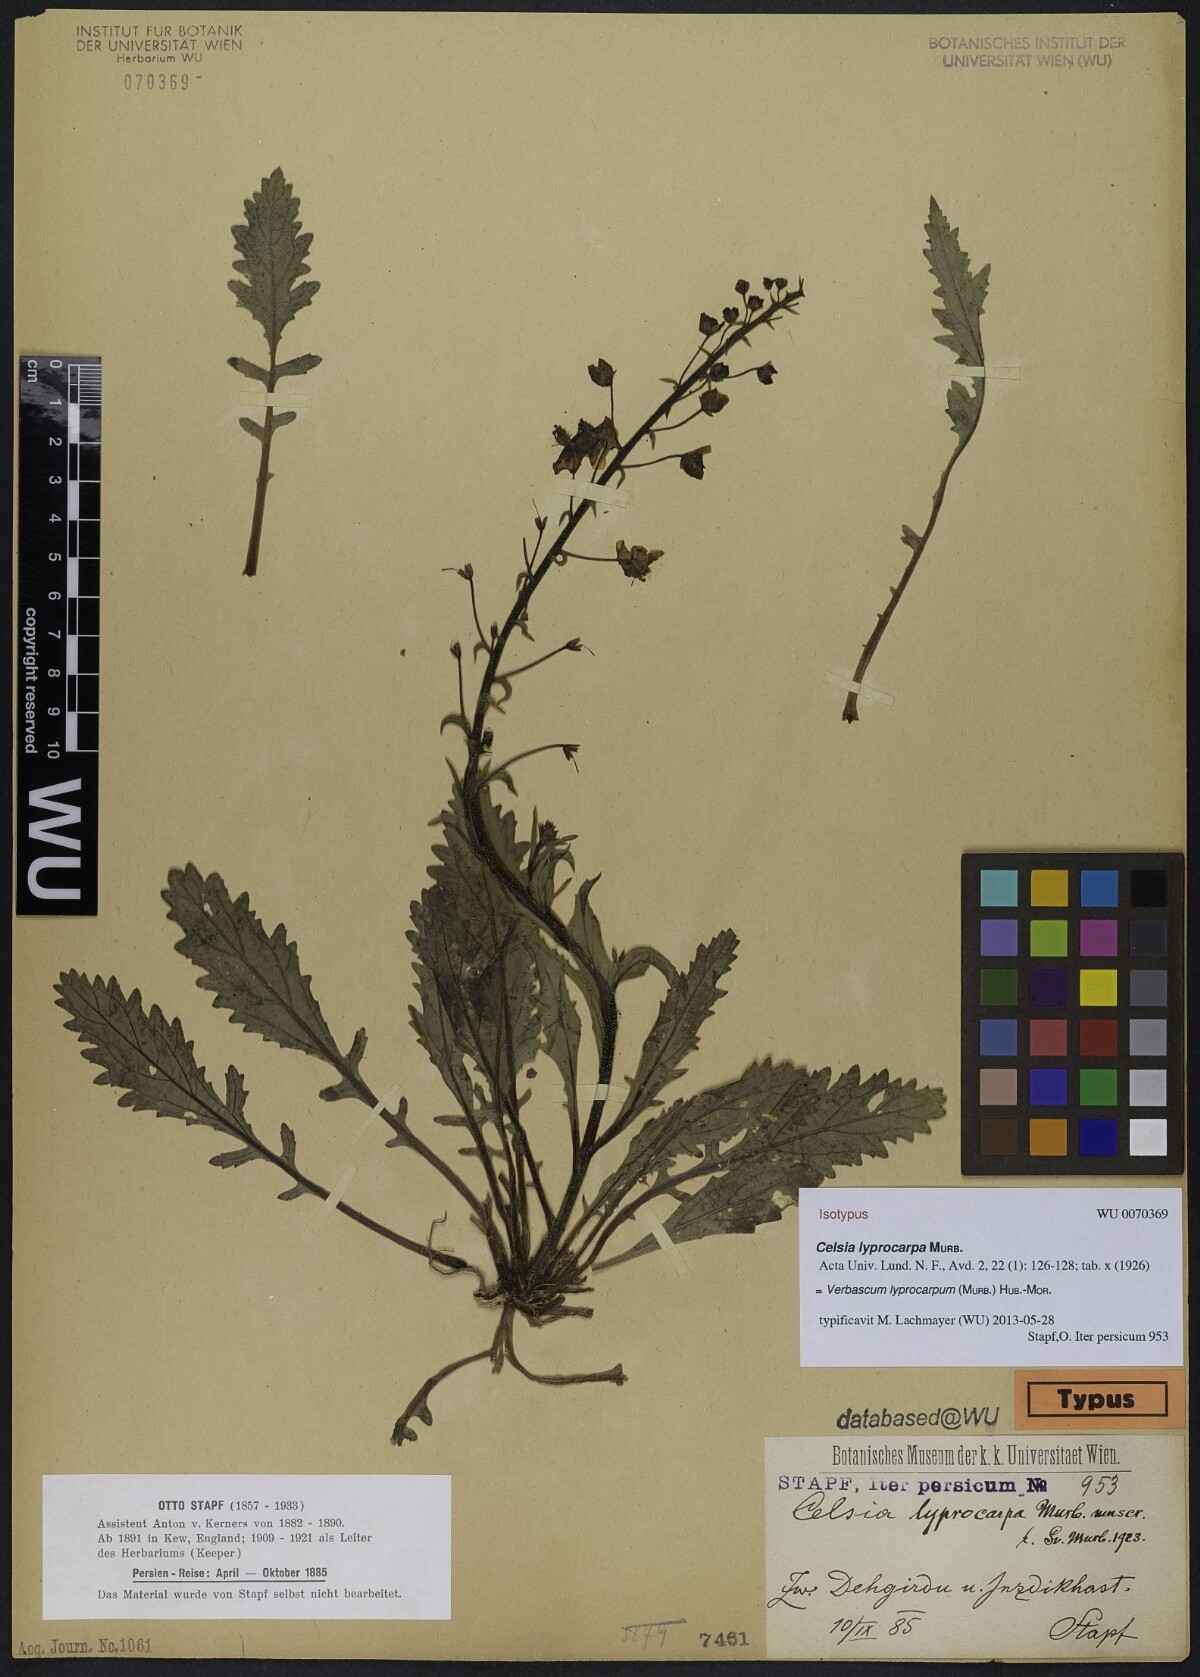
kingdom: Plantae
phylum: Tracheophyta
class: Magnoliopsida
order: Lamiales
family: Scrophulariaceae
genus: Verbascum
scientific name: Verbascum lyprocarpum
